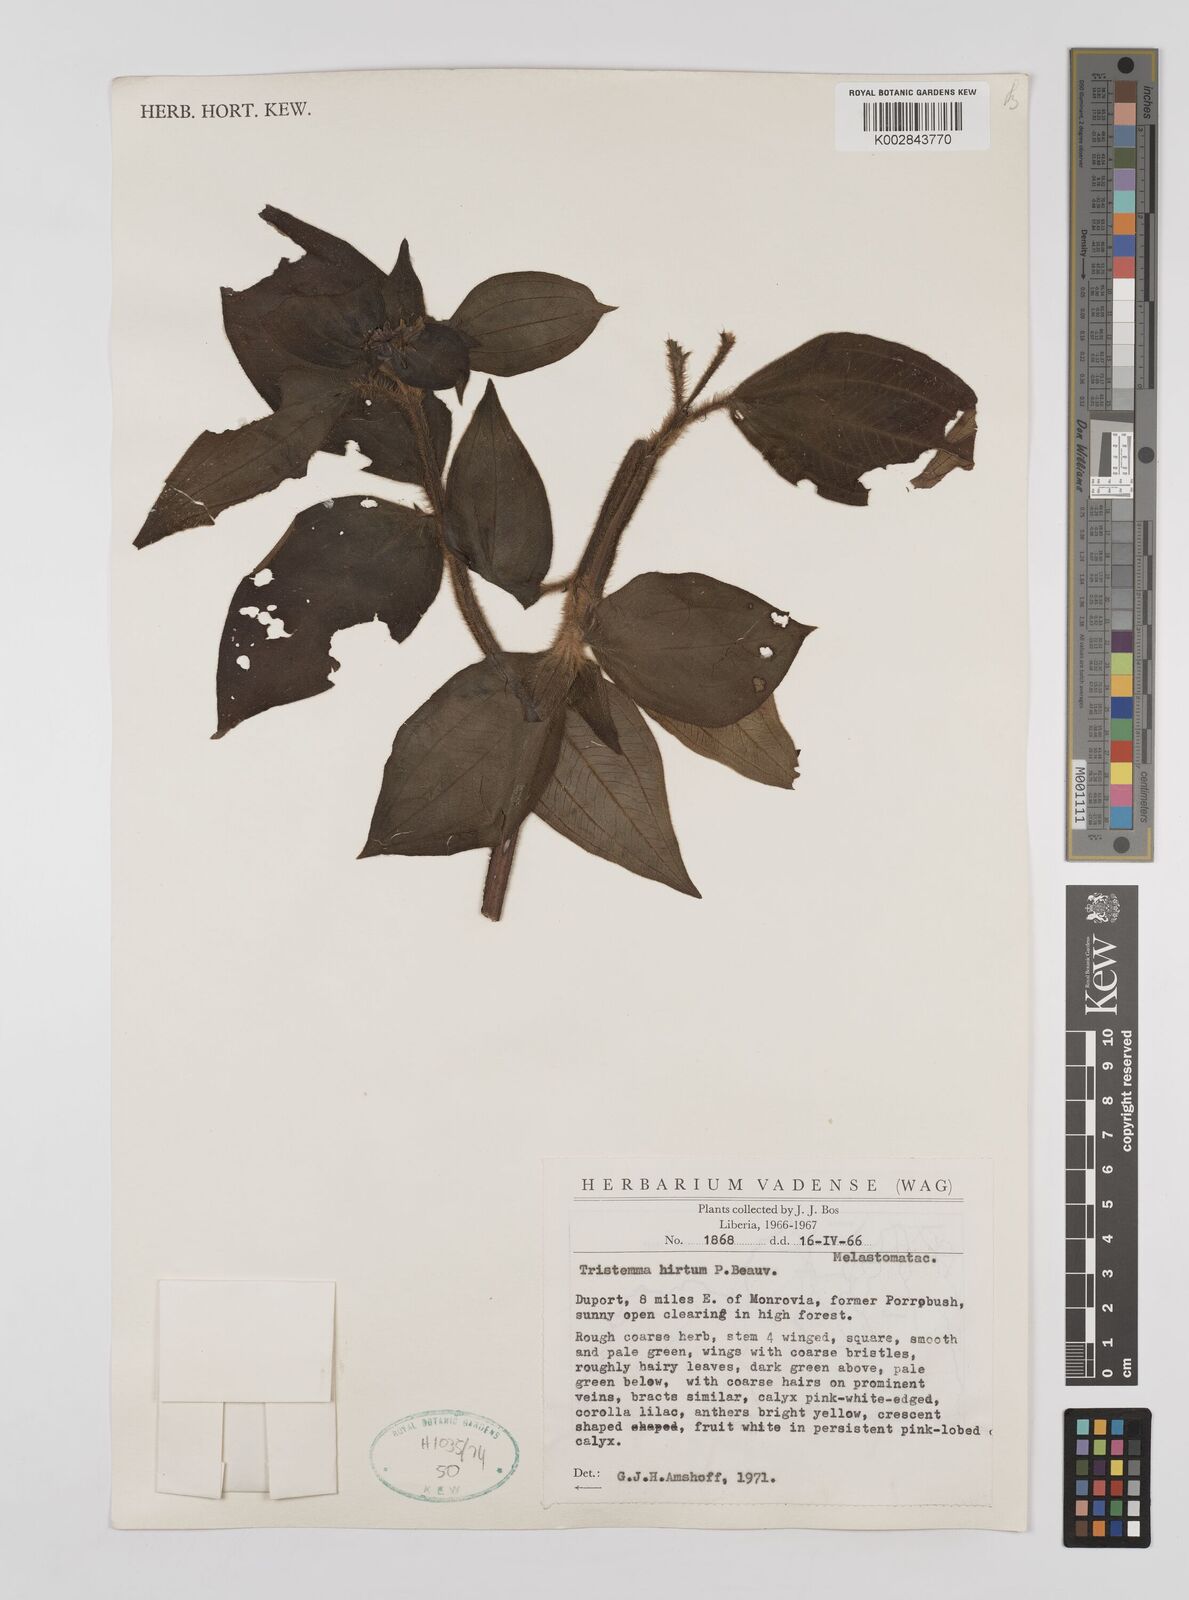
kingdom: Plantae
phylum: Tracheophyta
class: Magnoliopsida
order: Myrtales
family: Melastomataceae
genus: Tristemma
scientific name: Tristemma hirtum
